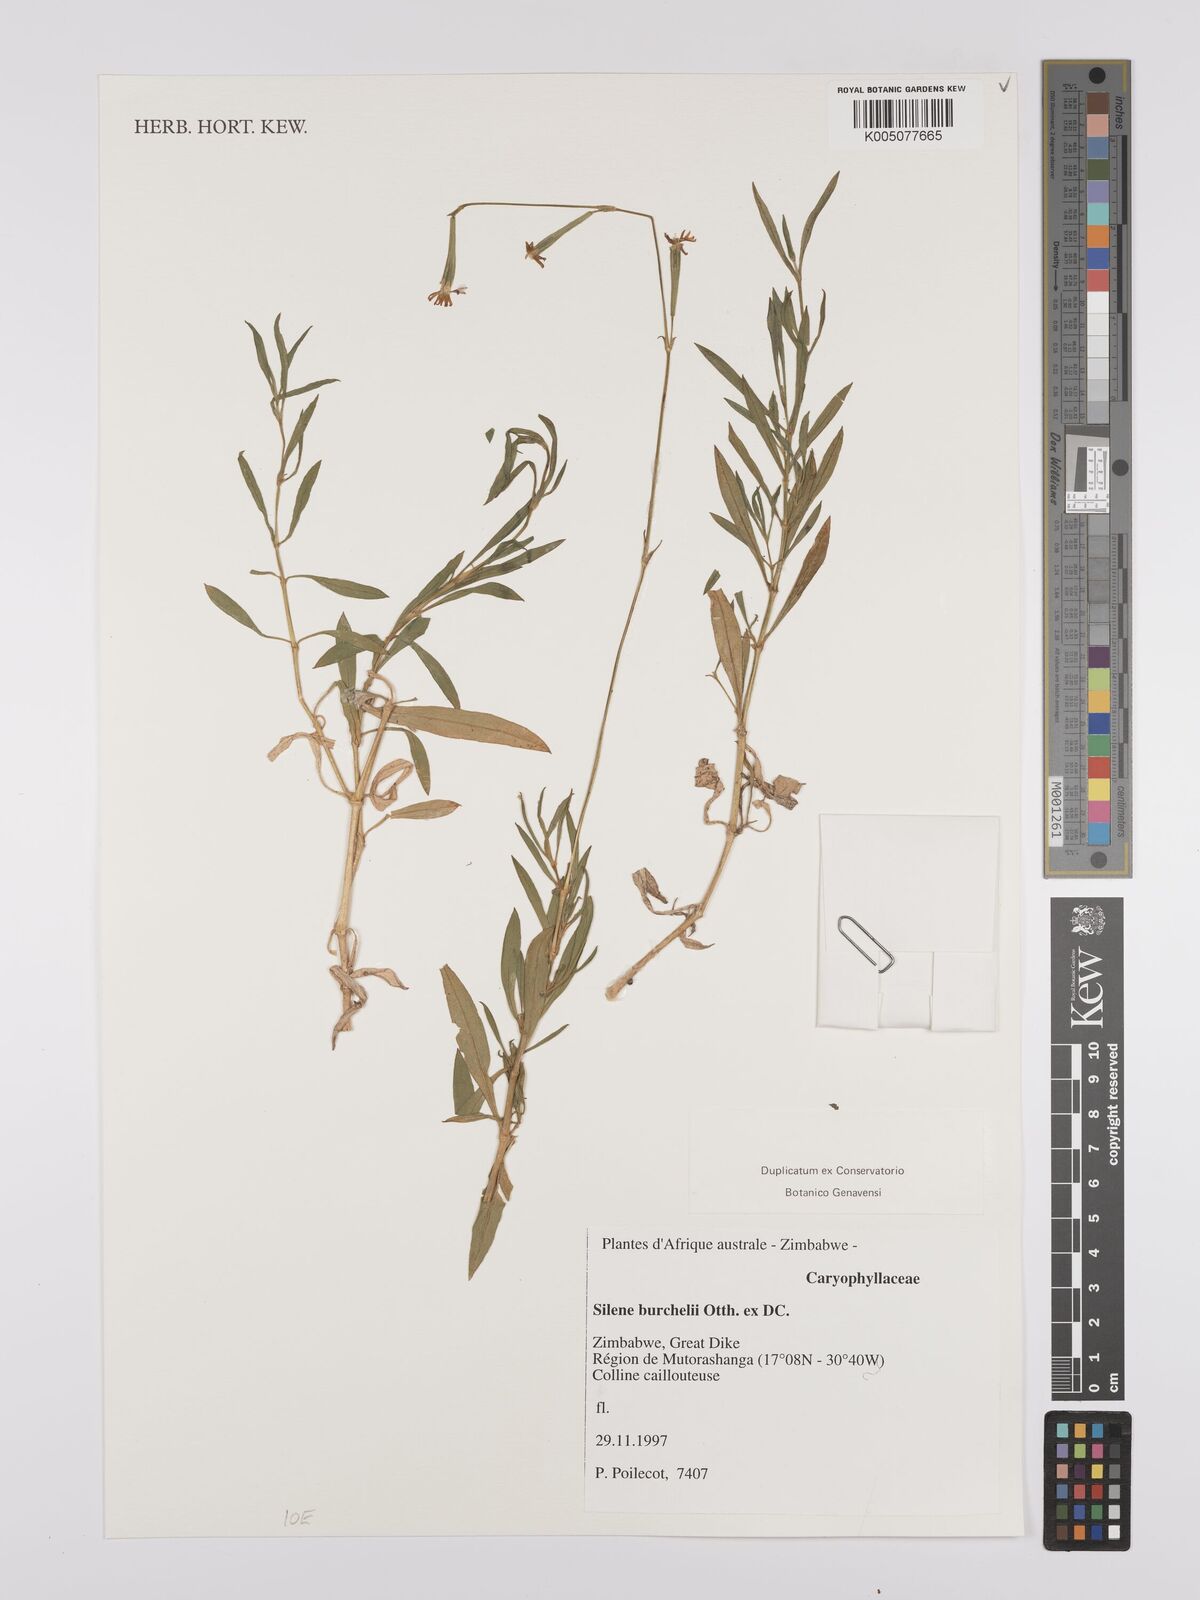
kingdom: Plantae
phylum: Tracheophyta
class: Magnoliopsida
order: Caryophyllales
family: Caryophyllaceae
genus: Silene
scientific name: Silene burchellii
